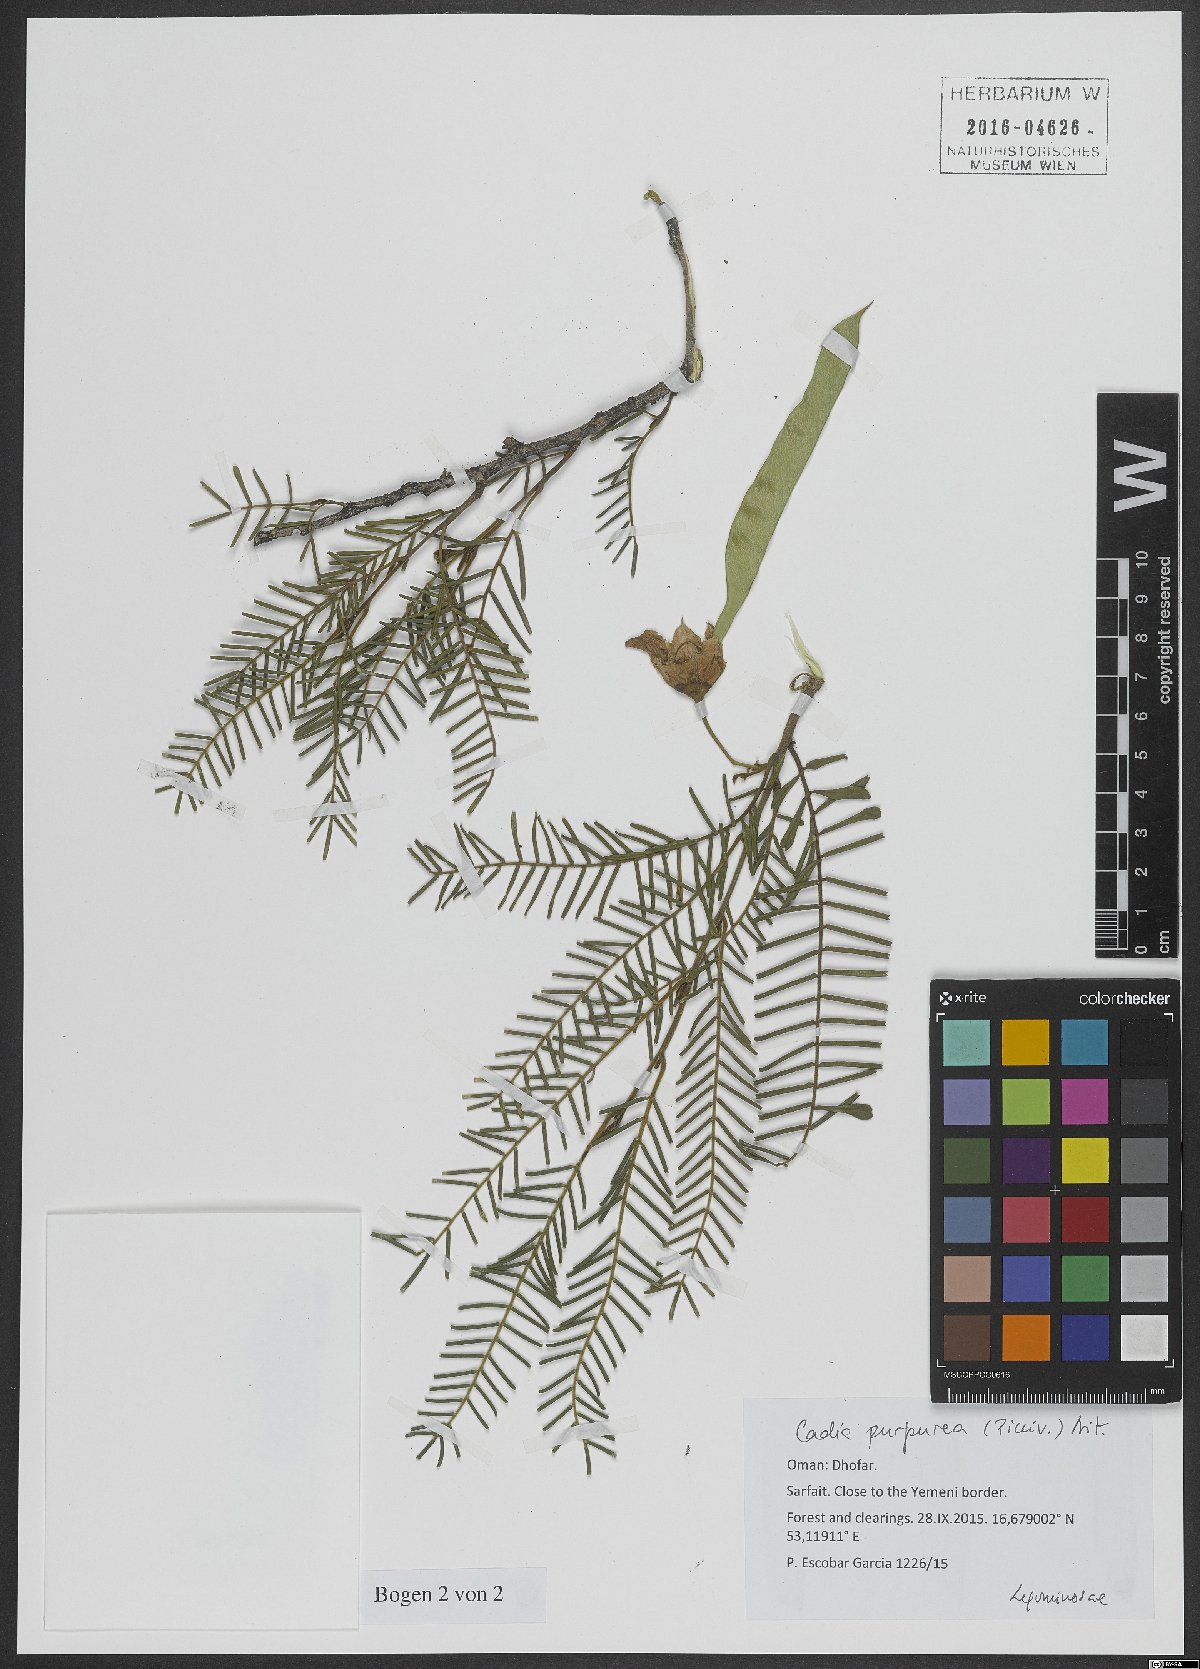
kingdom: Plantae
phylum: Tracheophyta
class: Magnoliopsida
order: Fabales
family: Fabaceae
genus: Cadia
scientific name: Cadia purpurea
